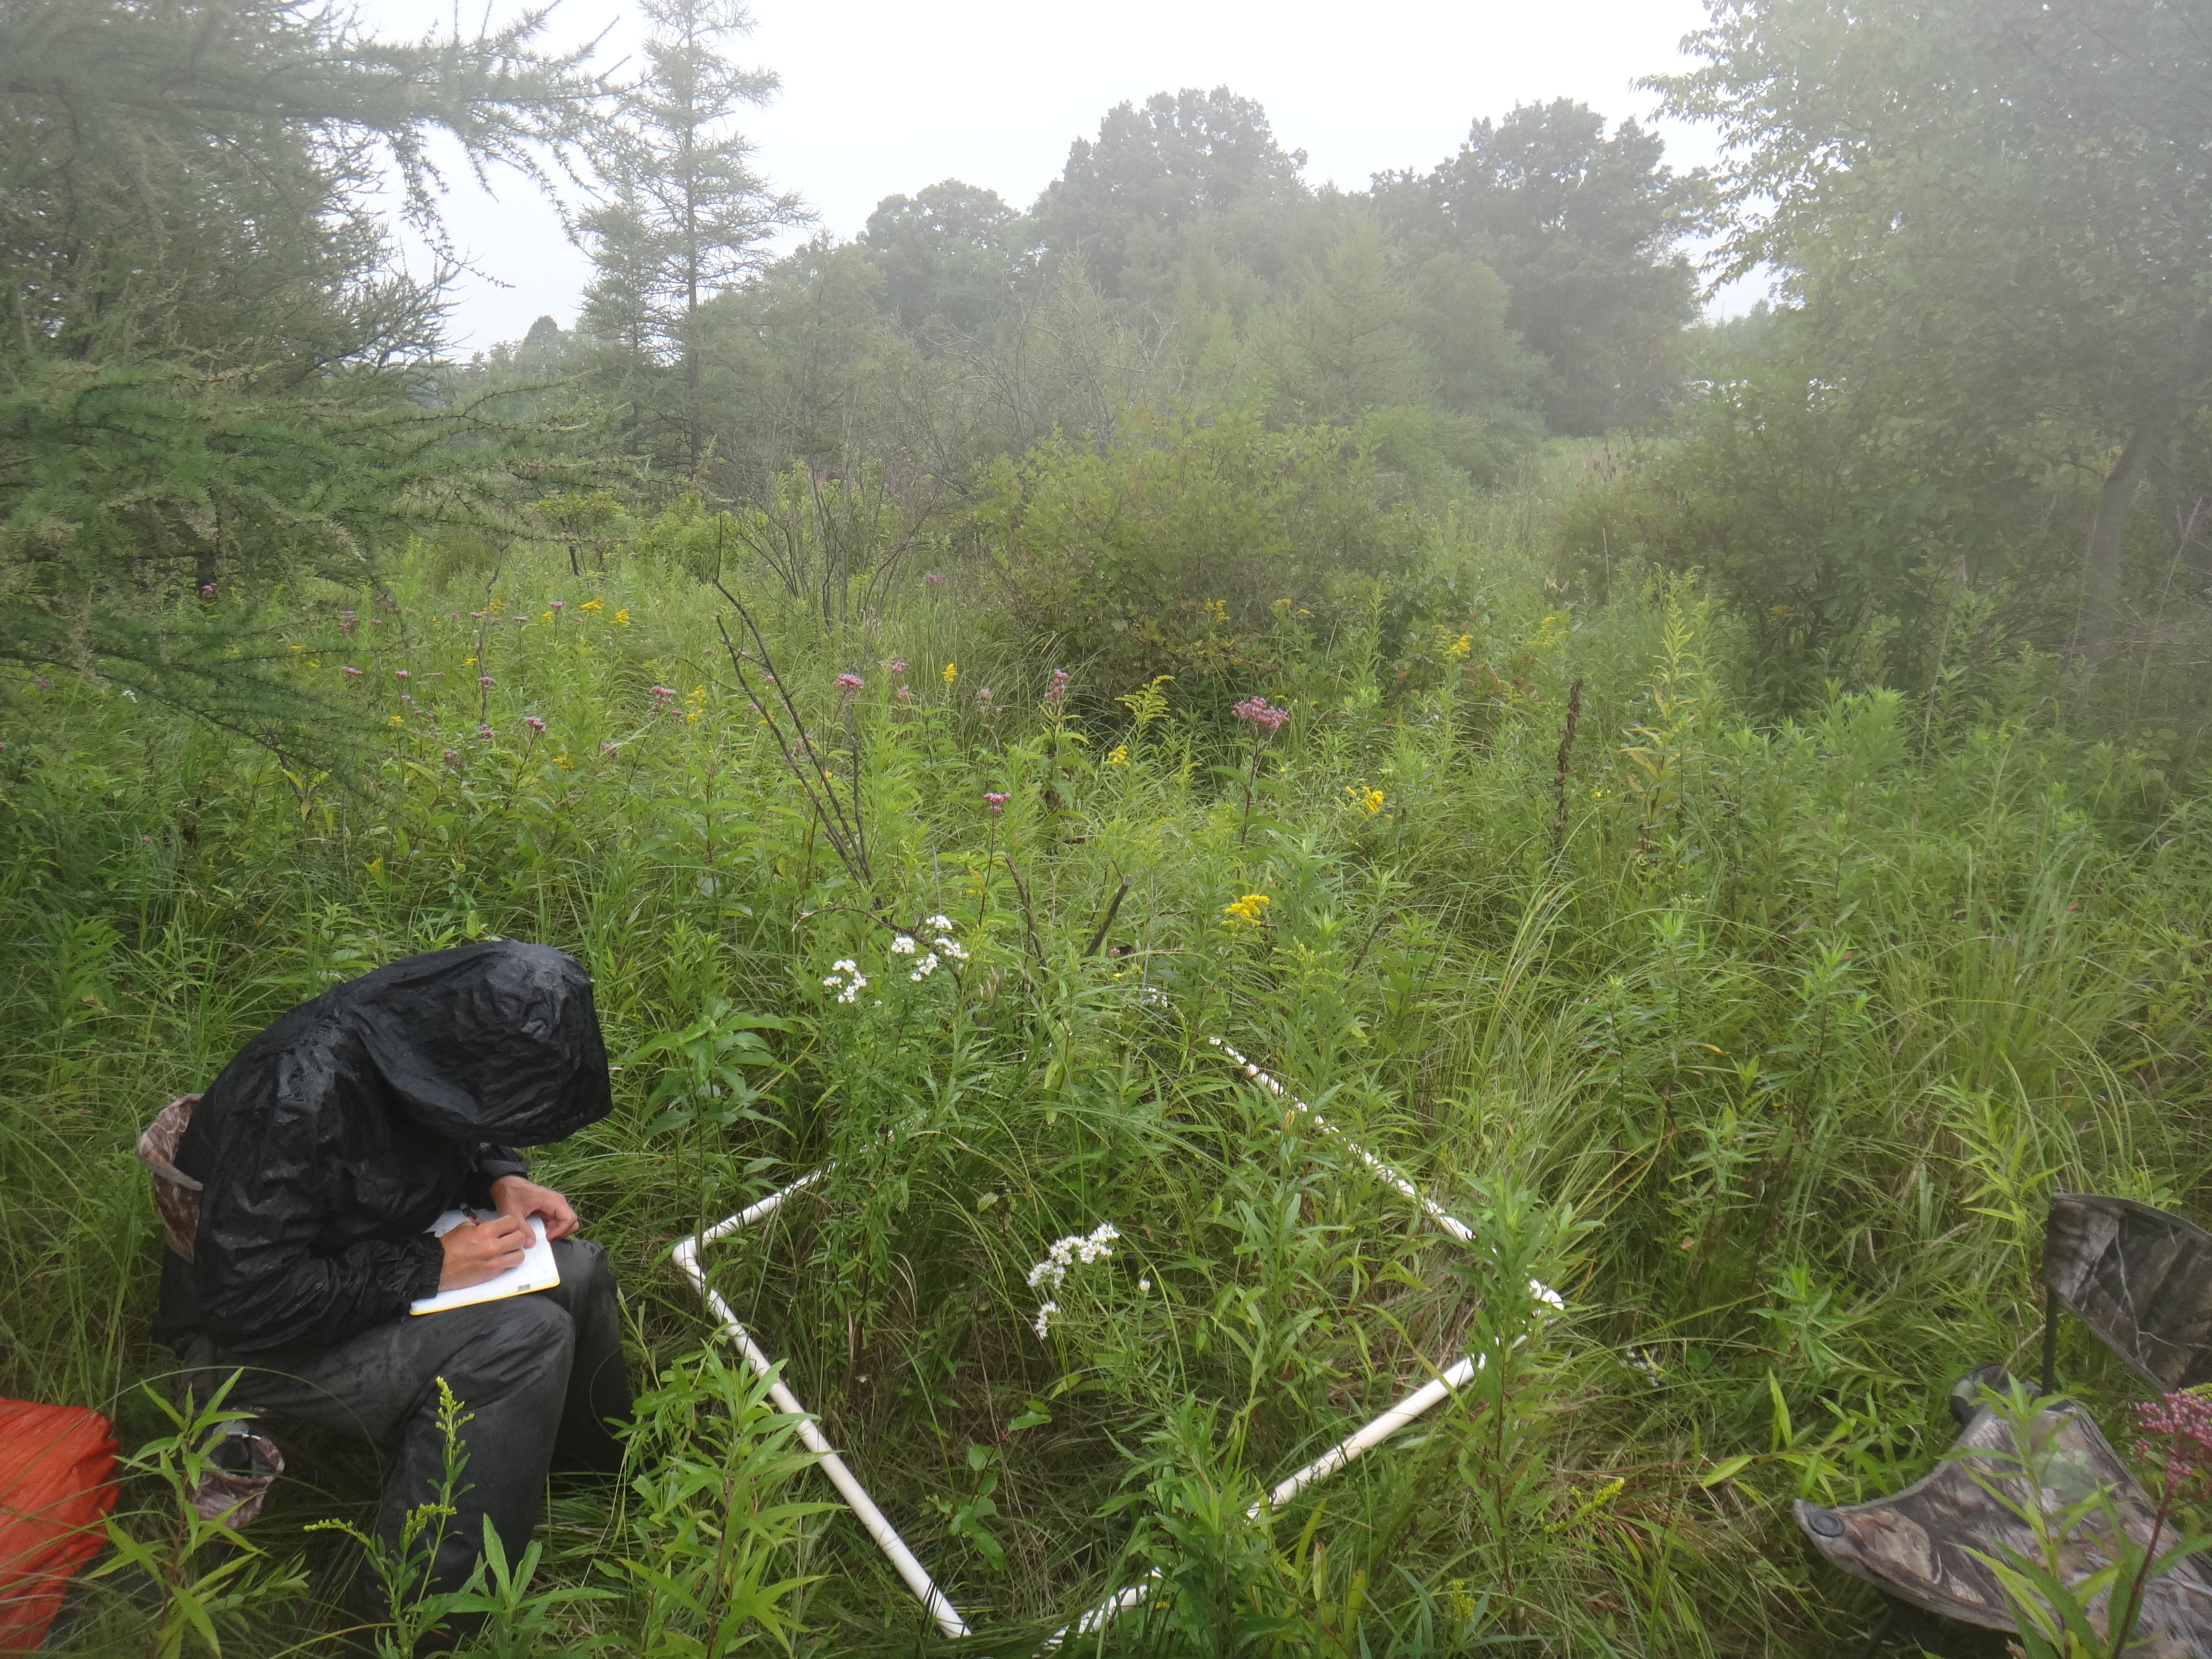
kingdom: Plantae
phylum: Tracheophyta
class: Magnoliopsida
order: Malpighiales
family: Salicaceae
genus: Populus
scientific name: Populus tremuloides
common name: Quaking aspen
